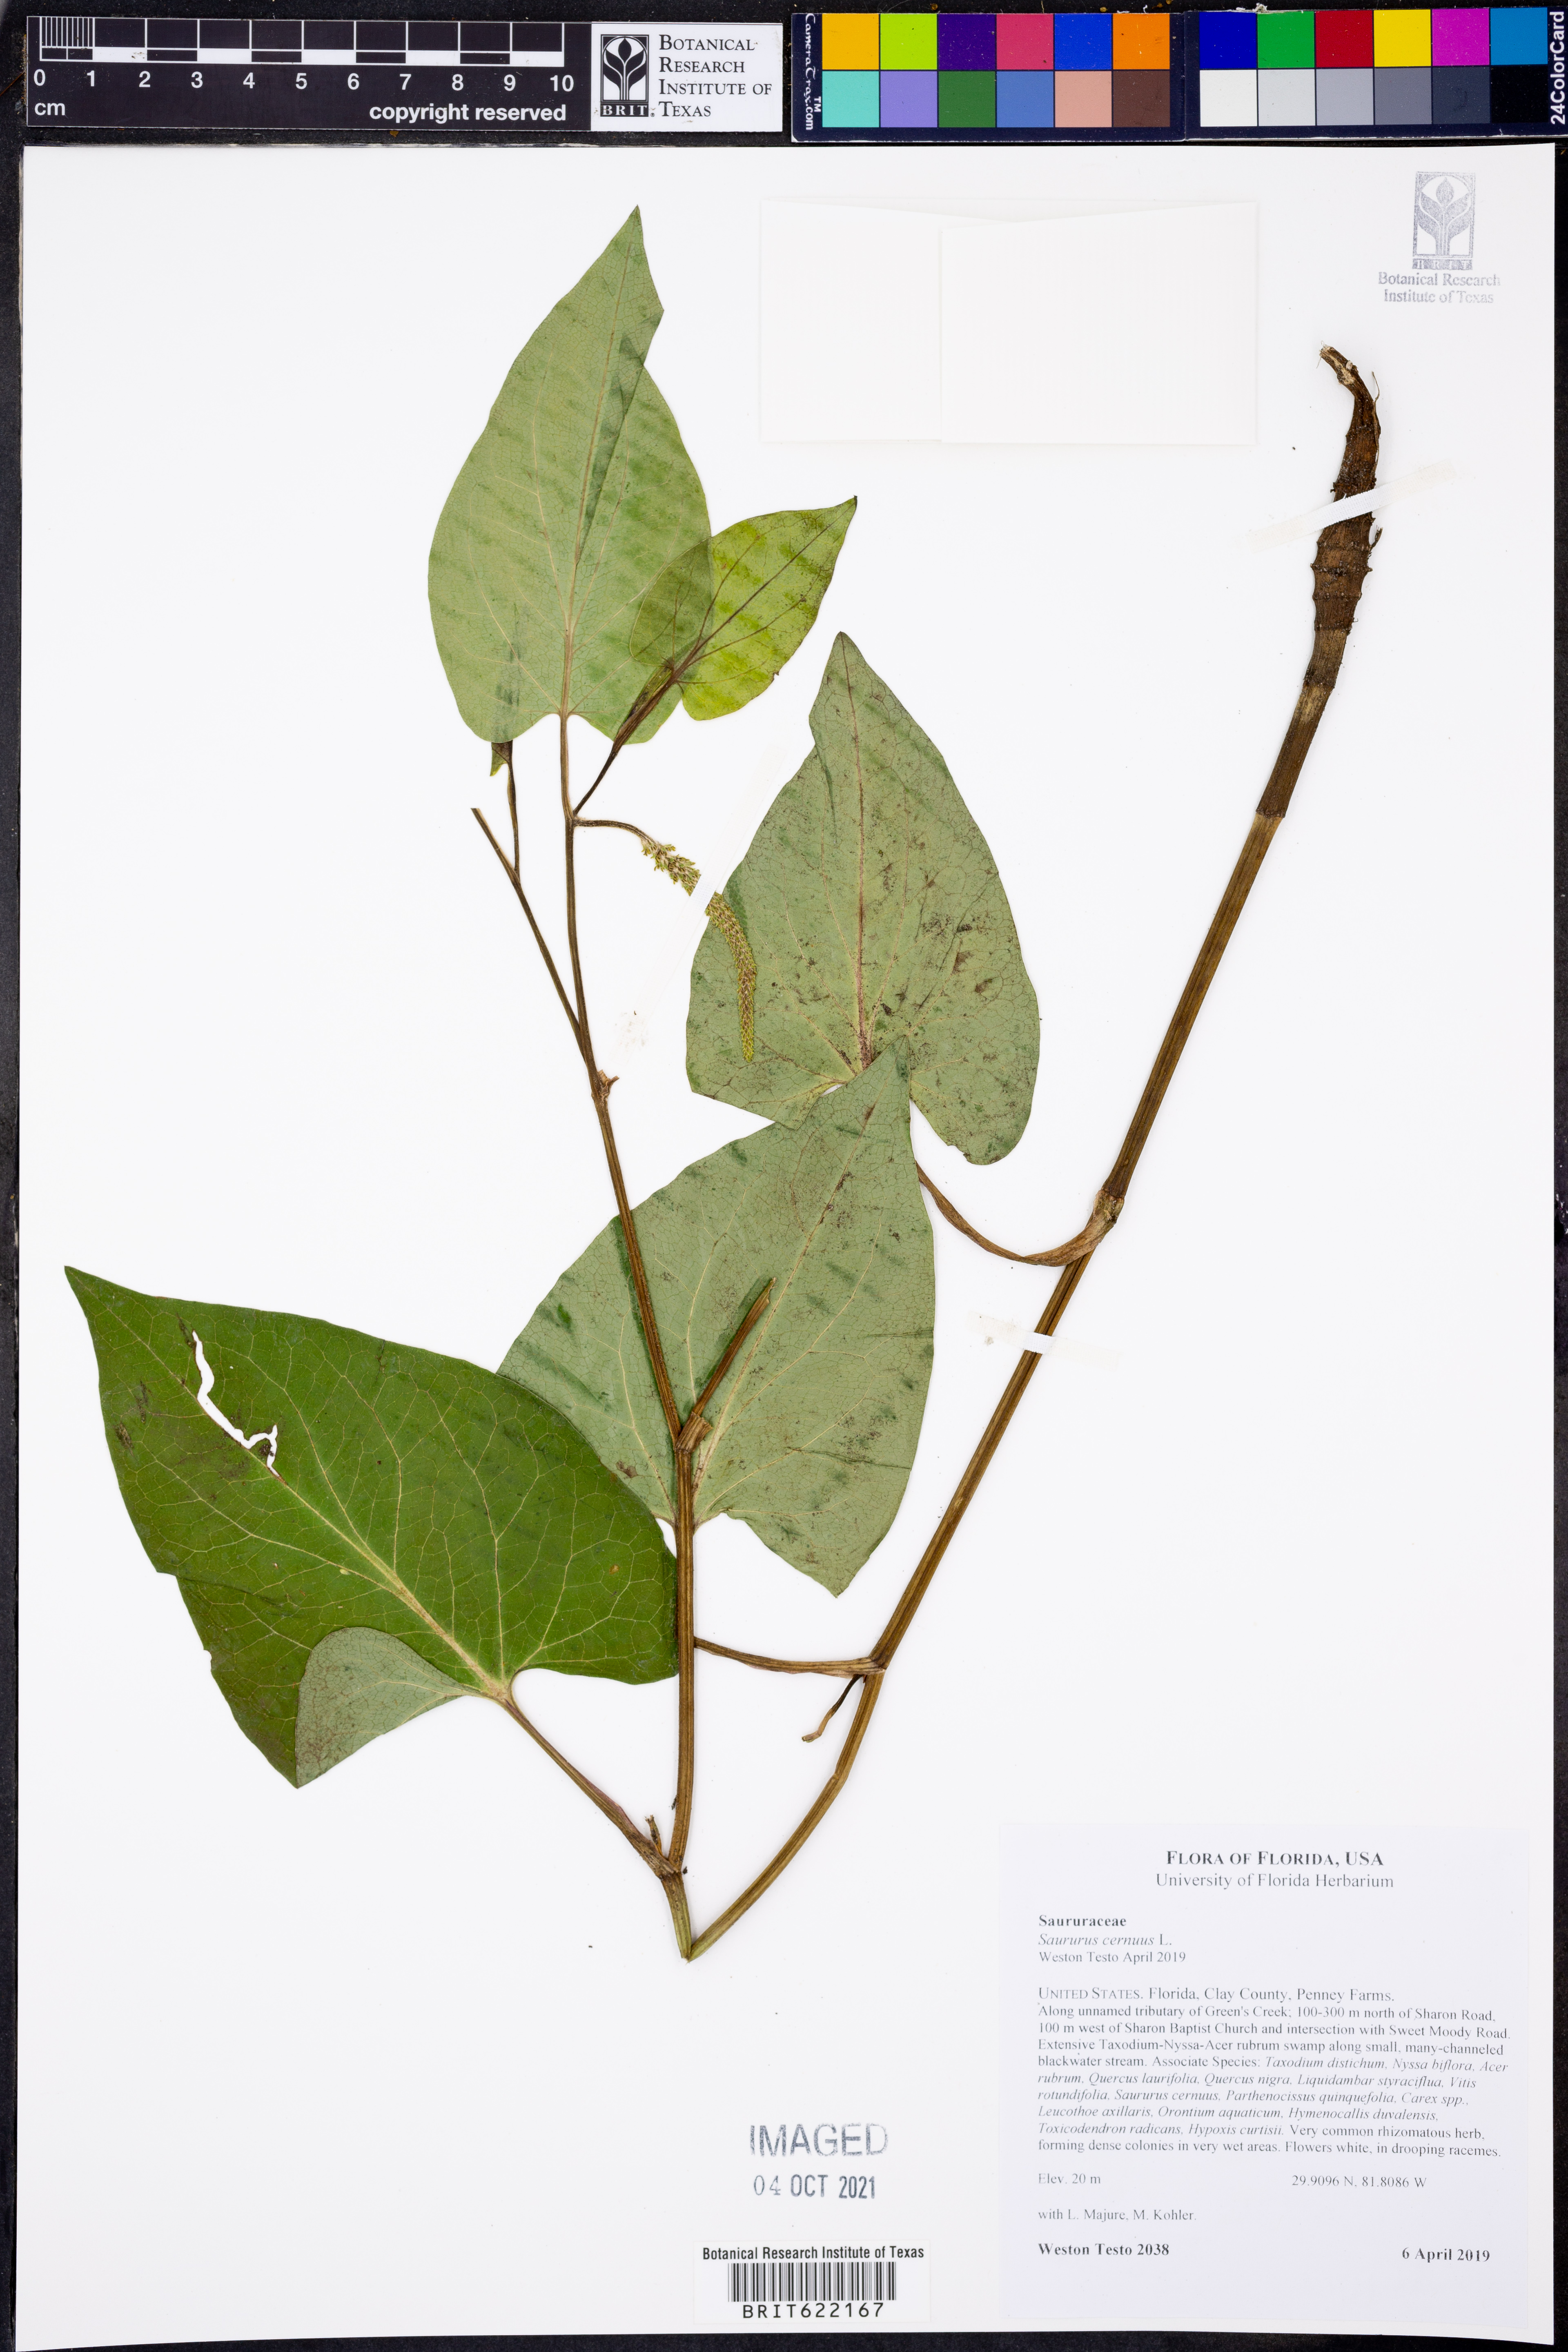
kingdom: Plantae
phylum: Tracheophyta
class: Magnoliopsida
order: Piperales
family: Saururaceae
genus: Saururus
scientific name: Saururus cernuus
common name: Lizard's-tail
